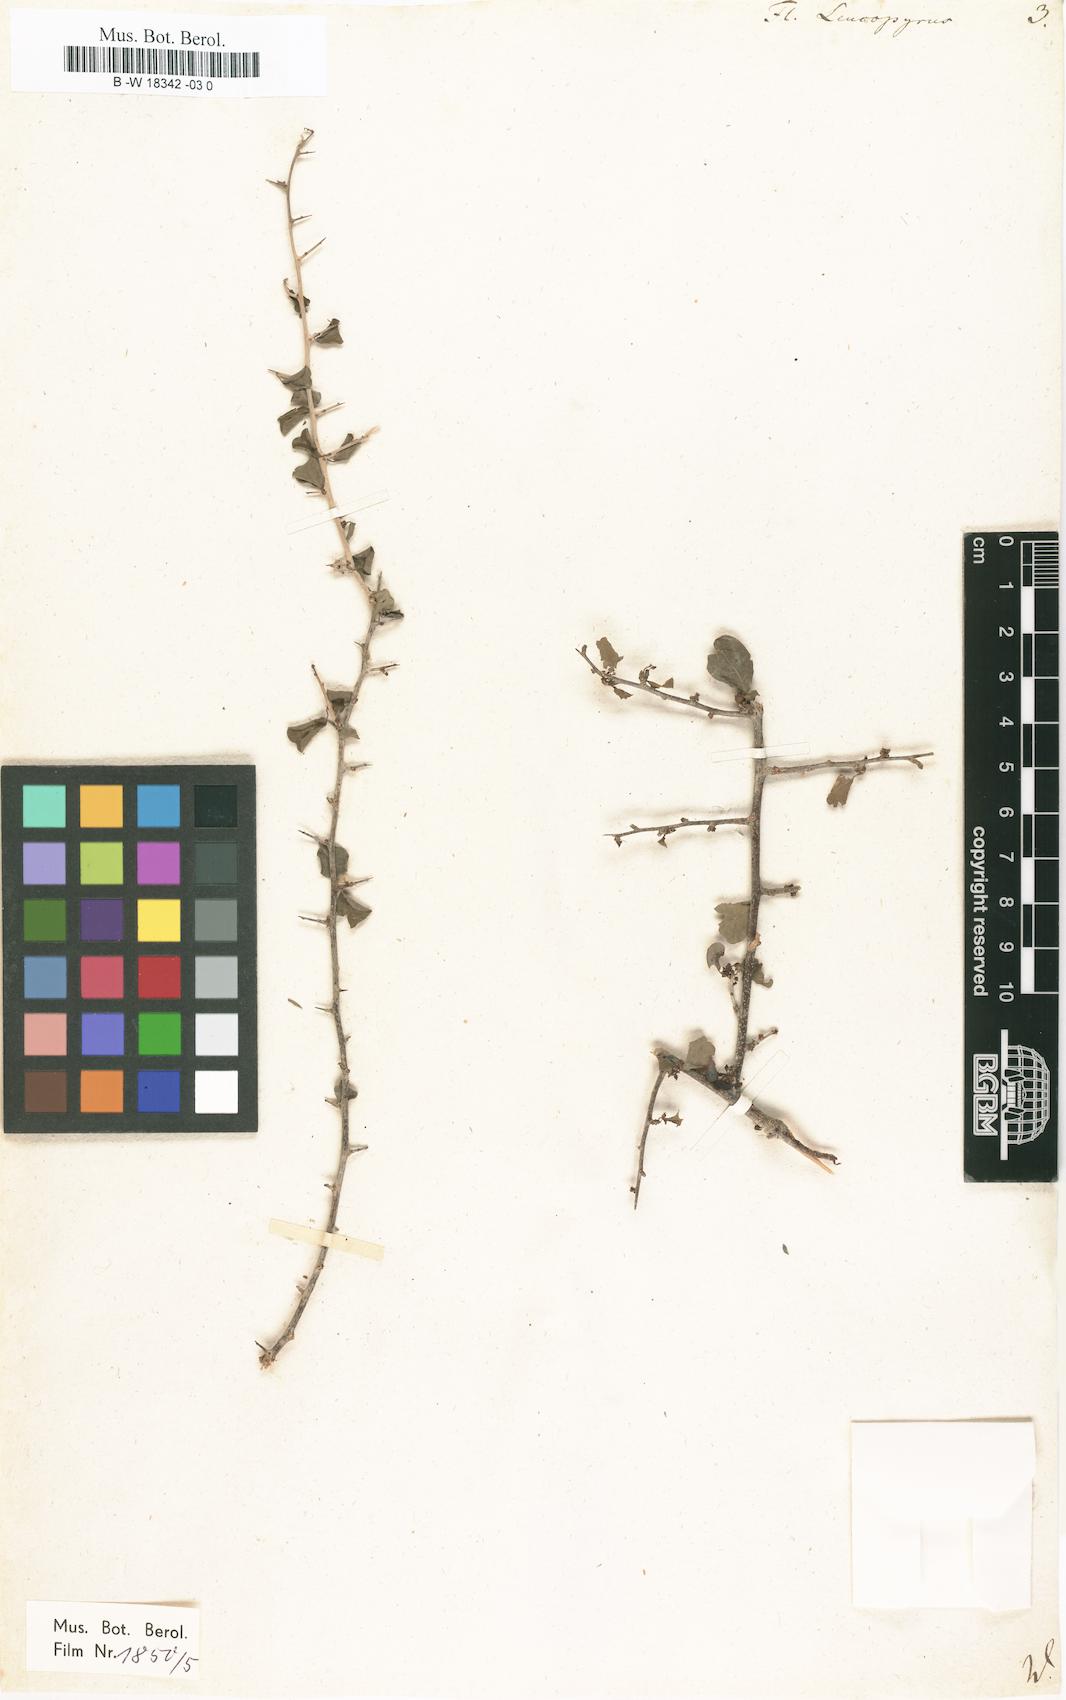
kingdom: Plantae
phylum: Tracheophyta
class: Magnoliopsida
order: Malpighiales
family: Phyllanthaceae
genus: Flueggea
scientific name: Flueggea leucopyrus
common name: Bushweed
